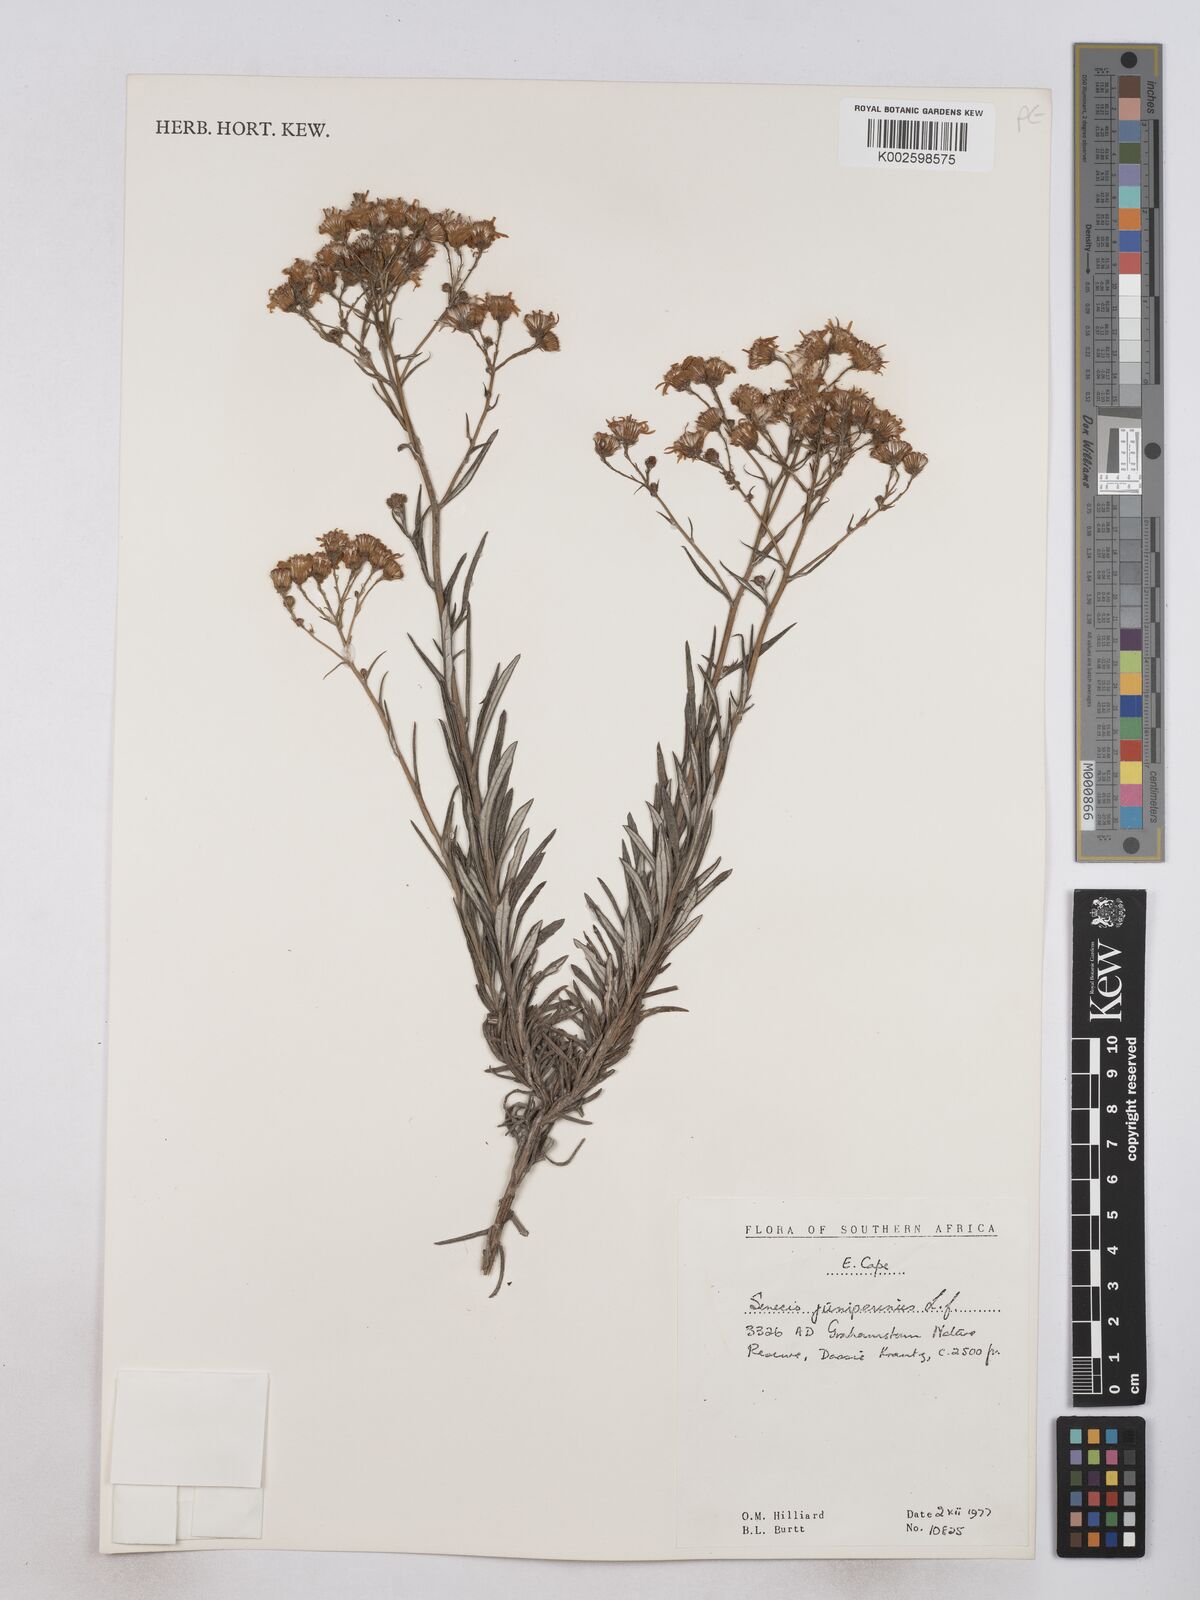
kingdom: Plantae
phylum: Tracheophyta
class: Magnoliopsida
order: Asterales
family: Asteraceae
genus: Senecio
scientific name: Senecio juniperinus
